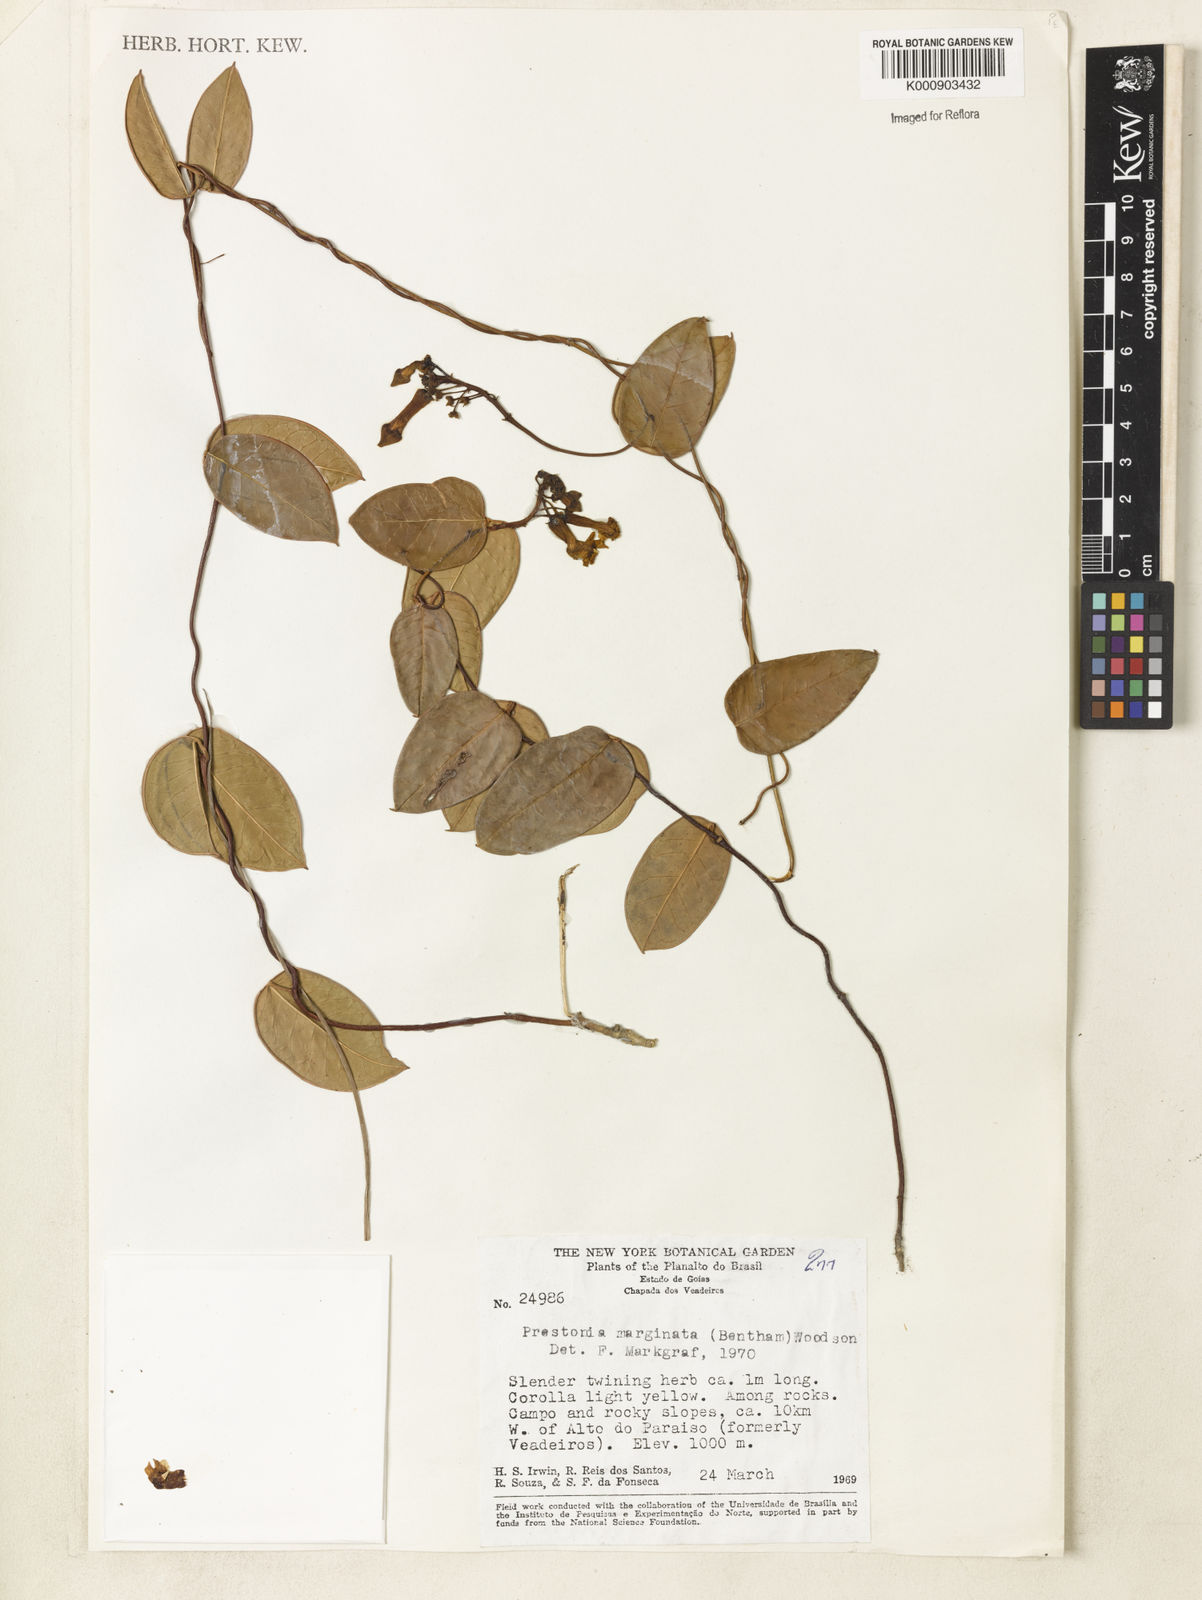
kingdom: Plantae
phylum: Tracheophyta
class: Magnoliopsida
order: Gentianales
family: Apocynaceae
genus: Prestonia
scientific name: Prestonia cayennensis
